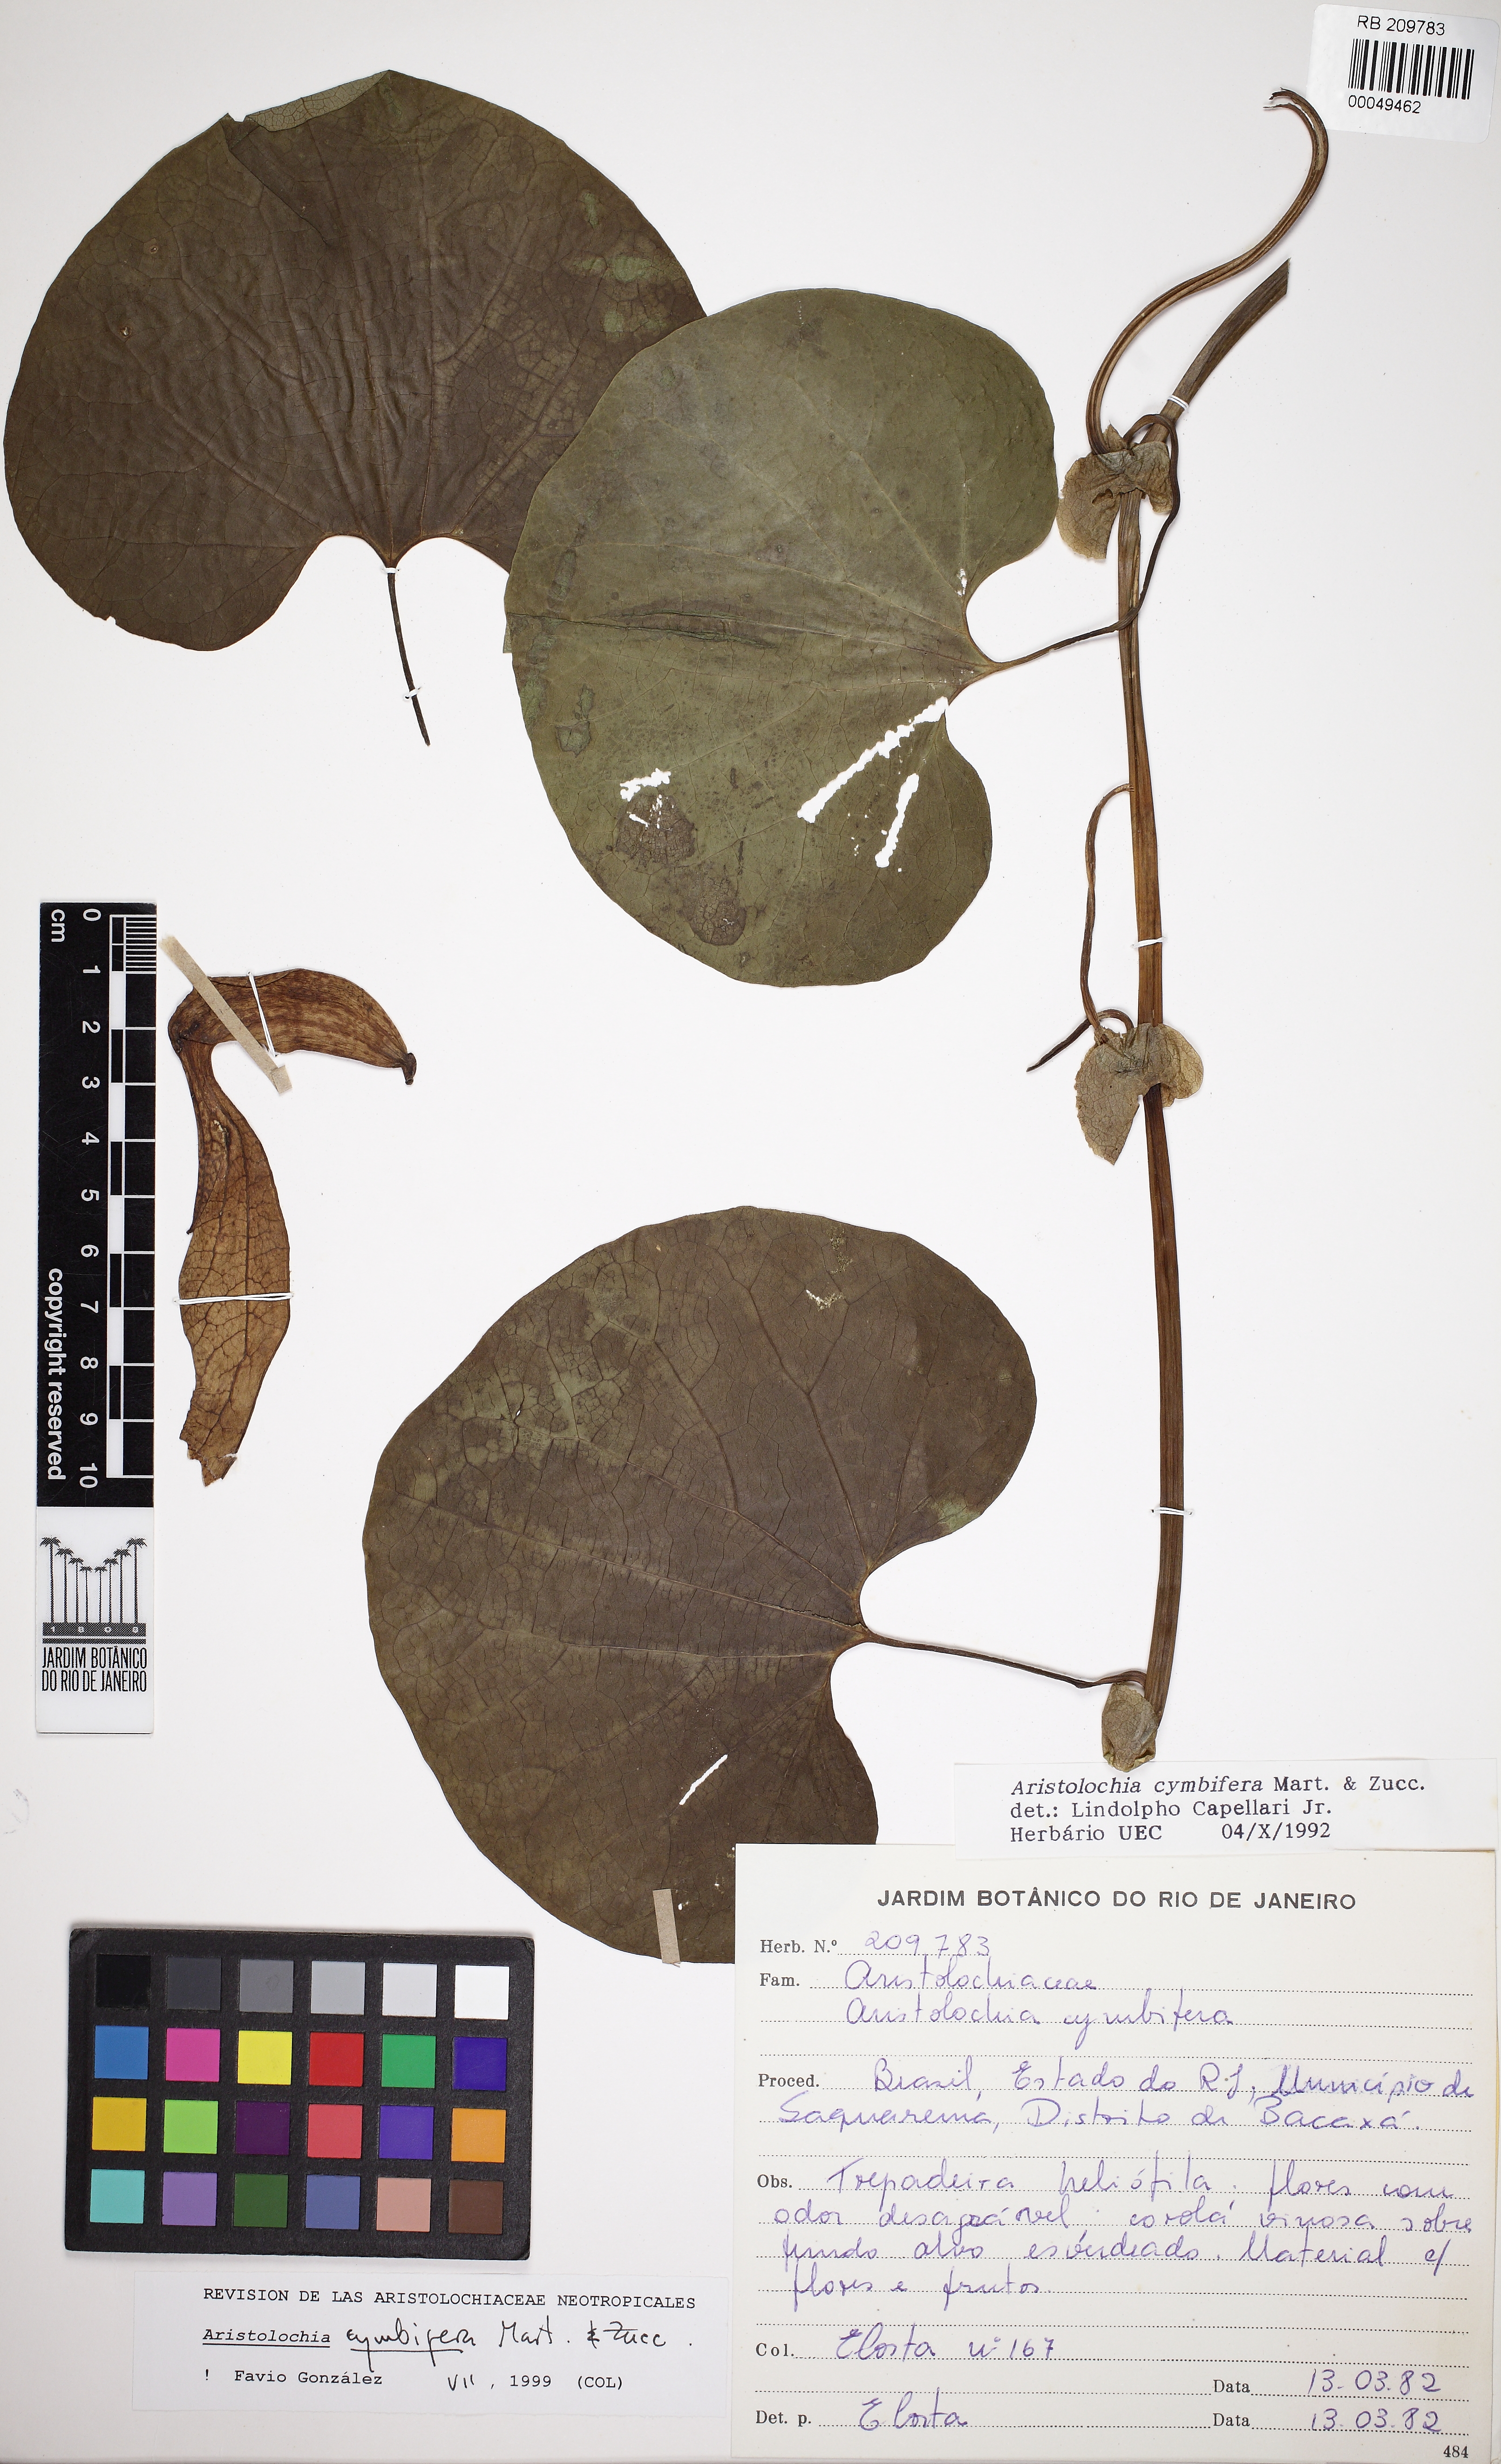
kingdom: Plantae
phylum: Tracheophyta
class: Magnoliopsida
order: Piperales
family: Aristolochiaceae
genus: Aristolochia
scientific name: Aristolochia cymbifera
